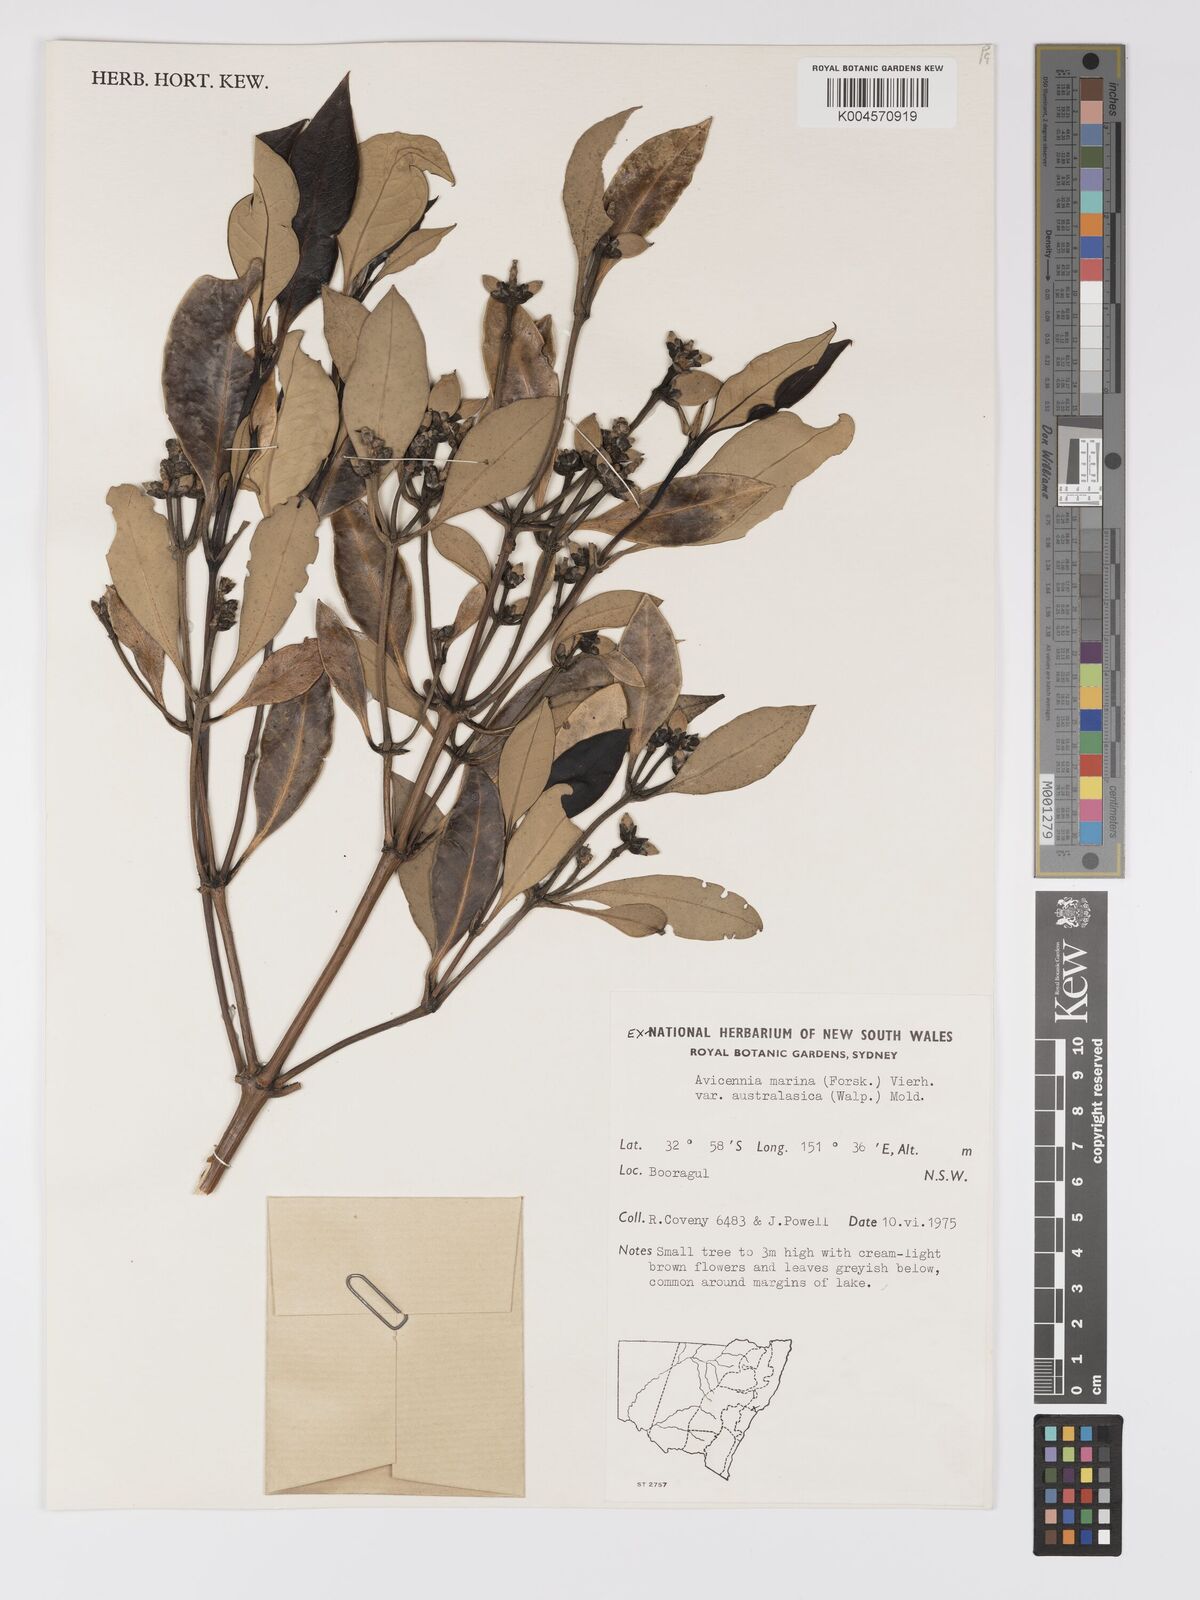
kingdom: Plantae
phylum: Tracheophyta
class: Magnoliopsida
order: Lamiales
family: Acanthaceae
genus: Avicennia
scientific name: Avicennia marina
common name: Gray mangrove
